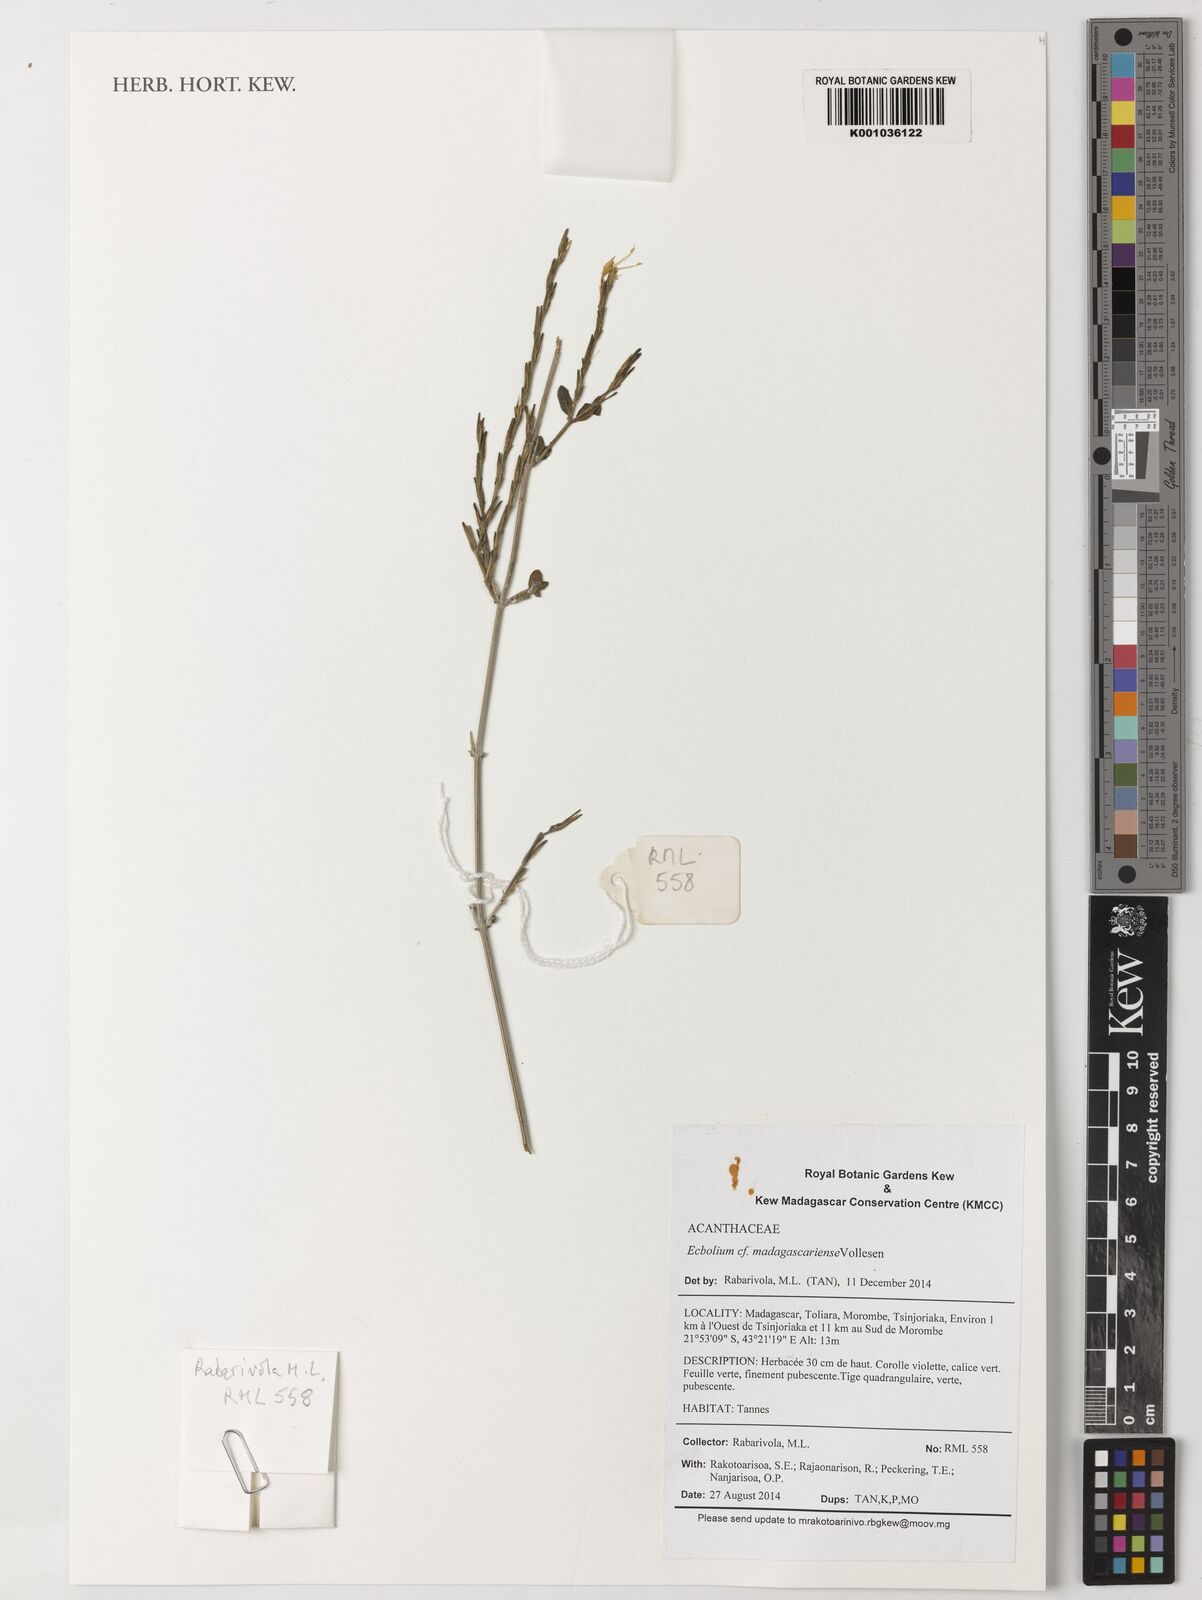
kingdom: Plantae
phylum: Tracheophyta
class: Magnoliopsida
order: Lamiales
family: Acanthaceae
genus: Hypoestes
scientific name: Hypoestes phyllostachya
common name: Polkadot-plant
